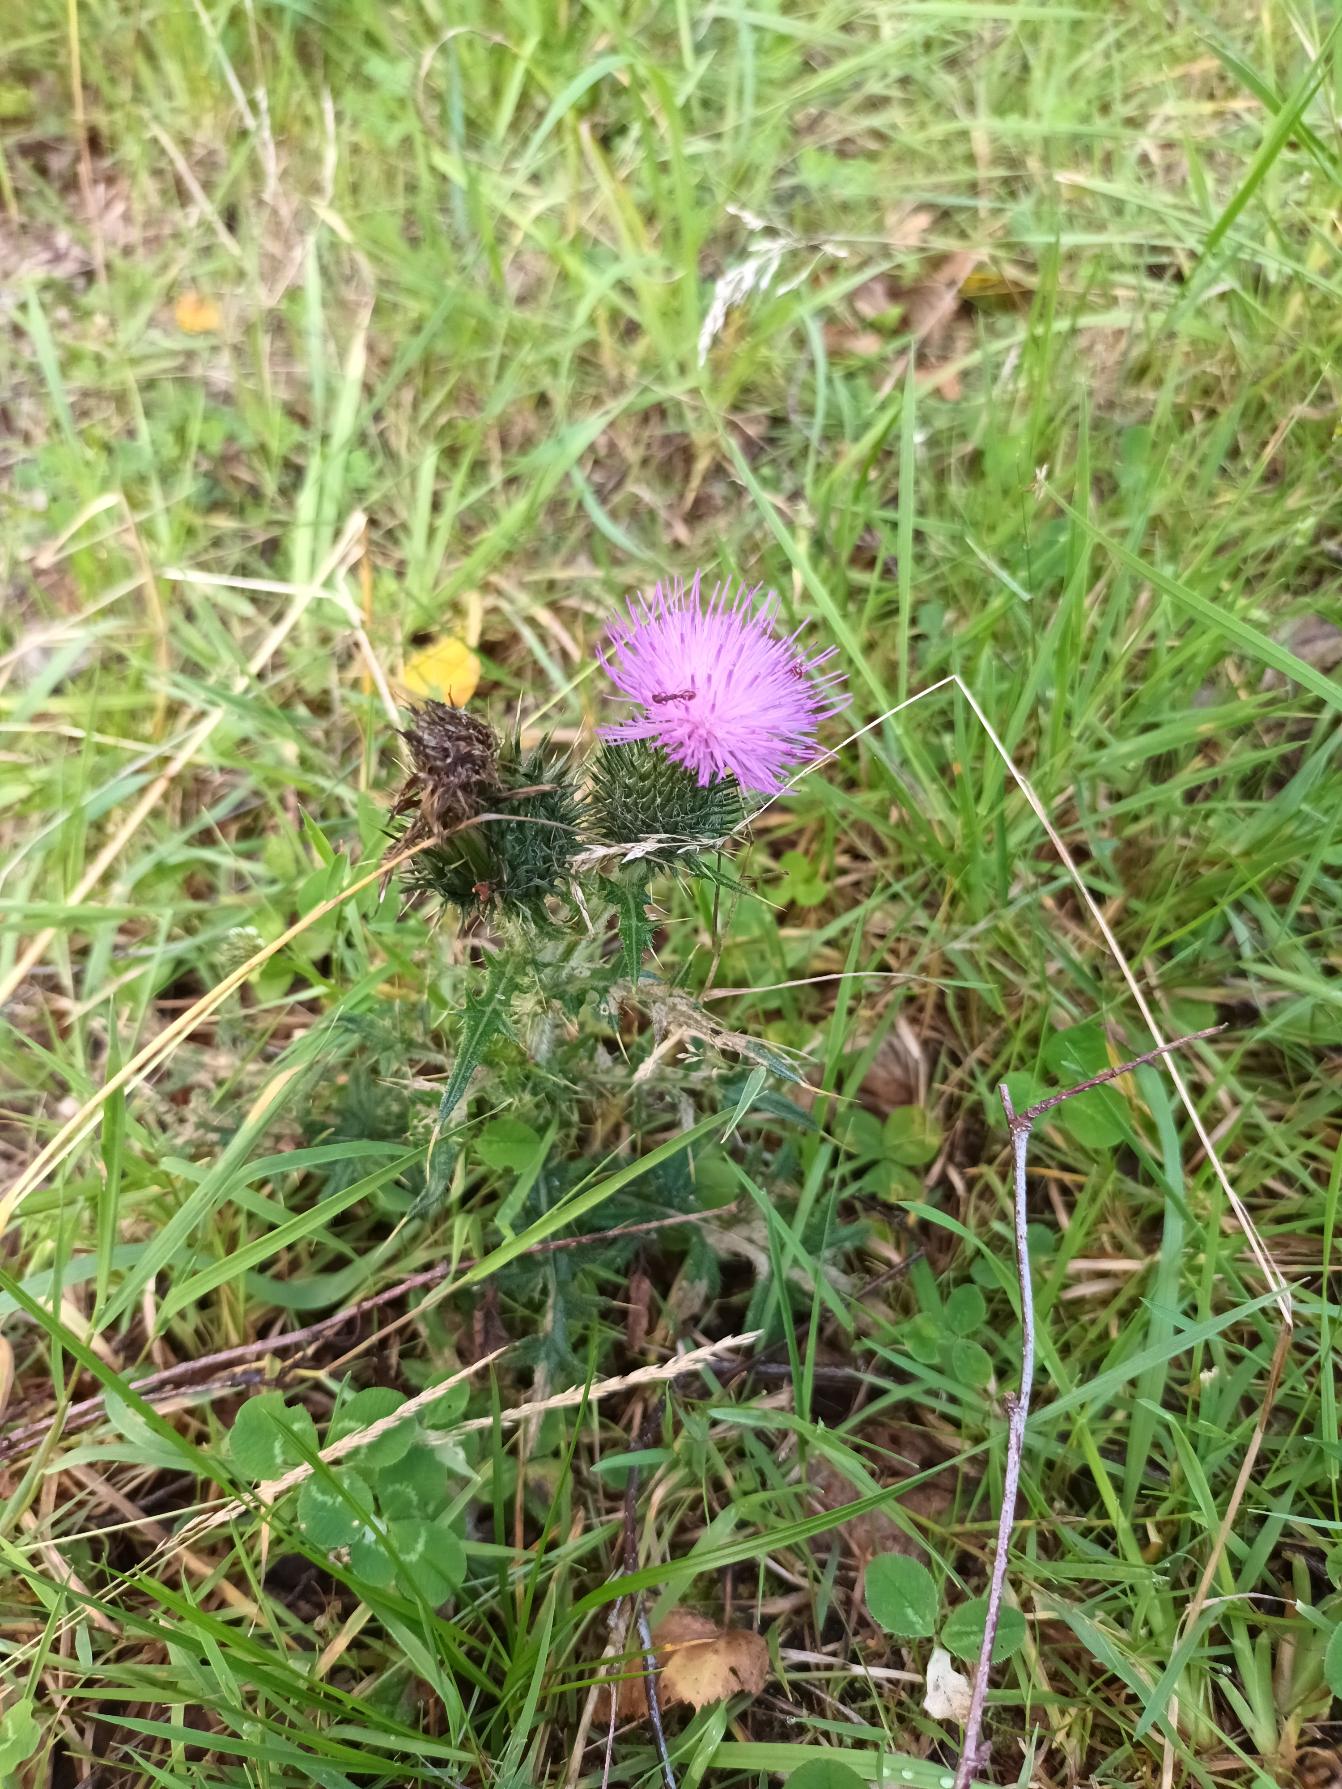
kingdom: Plantae
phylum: Tracheophyta
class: Magnoliopsida
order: Asterales
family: Asteraceae
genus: Cirsium
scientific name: Cirsium vulgare
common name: Horse-tidsel
